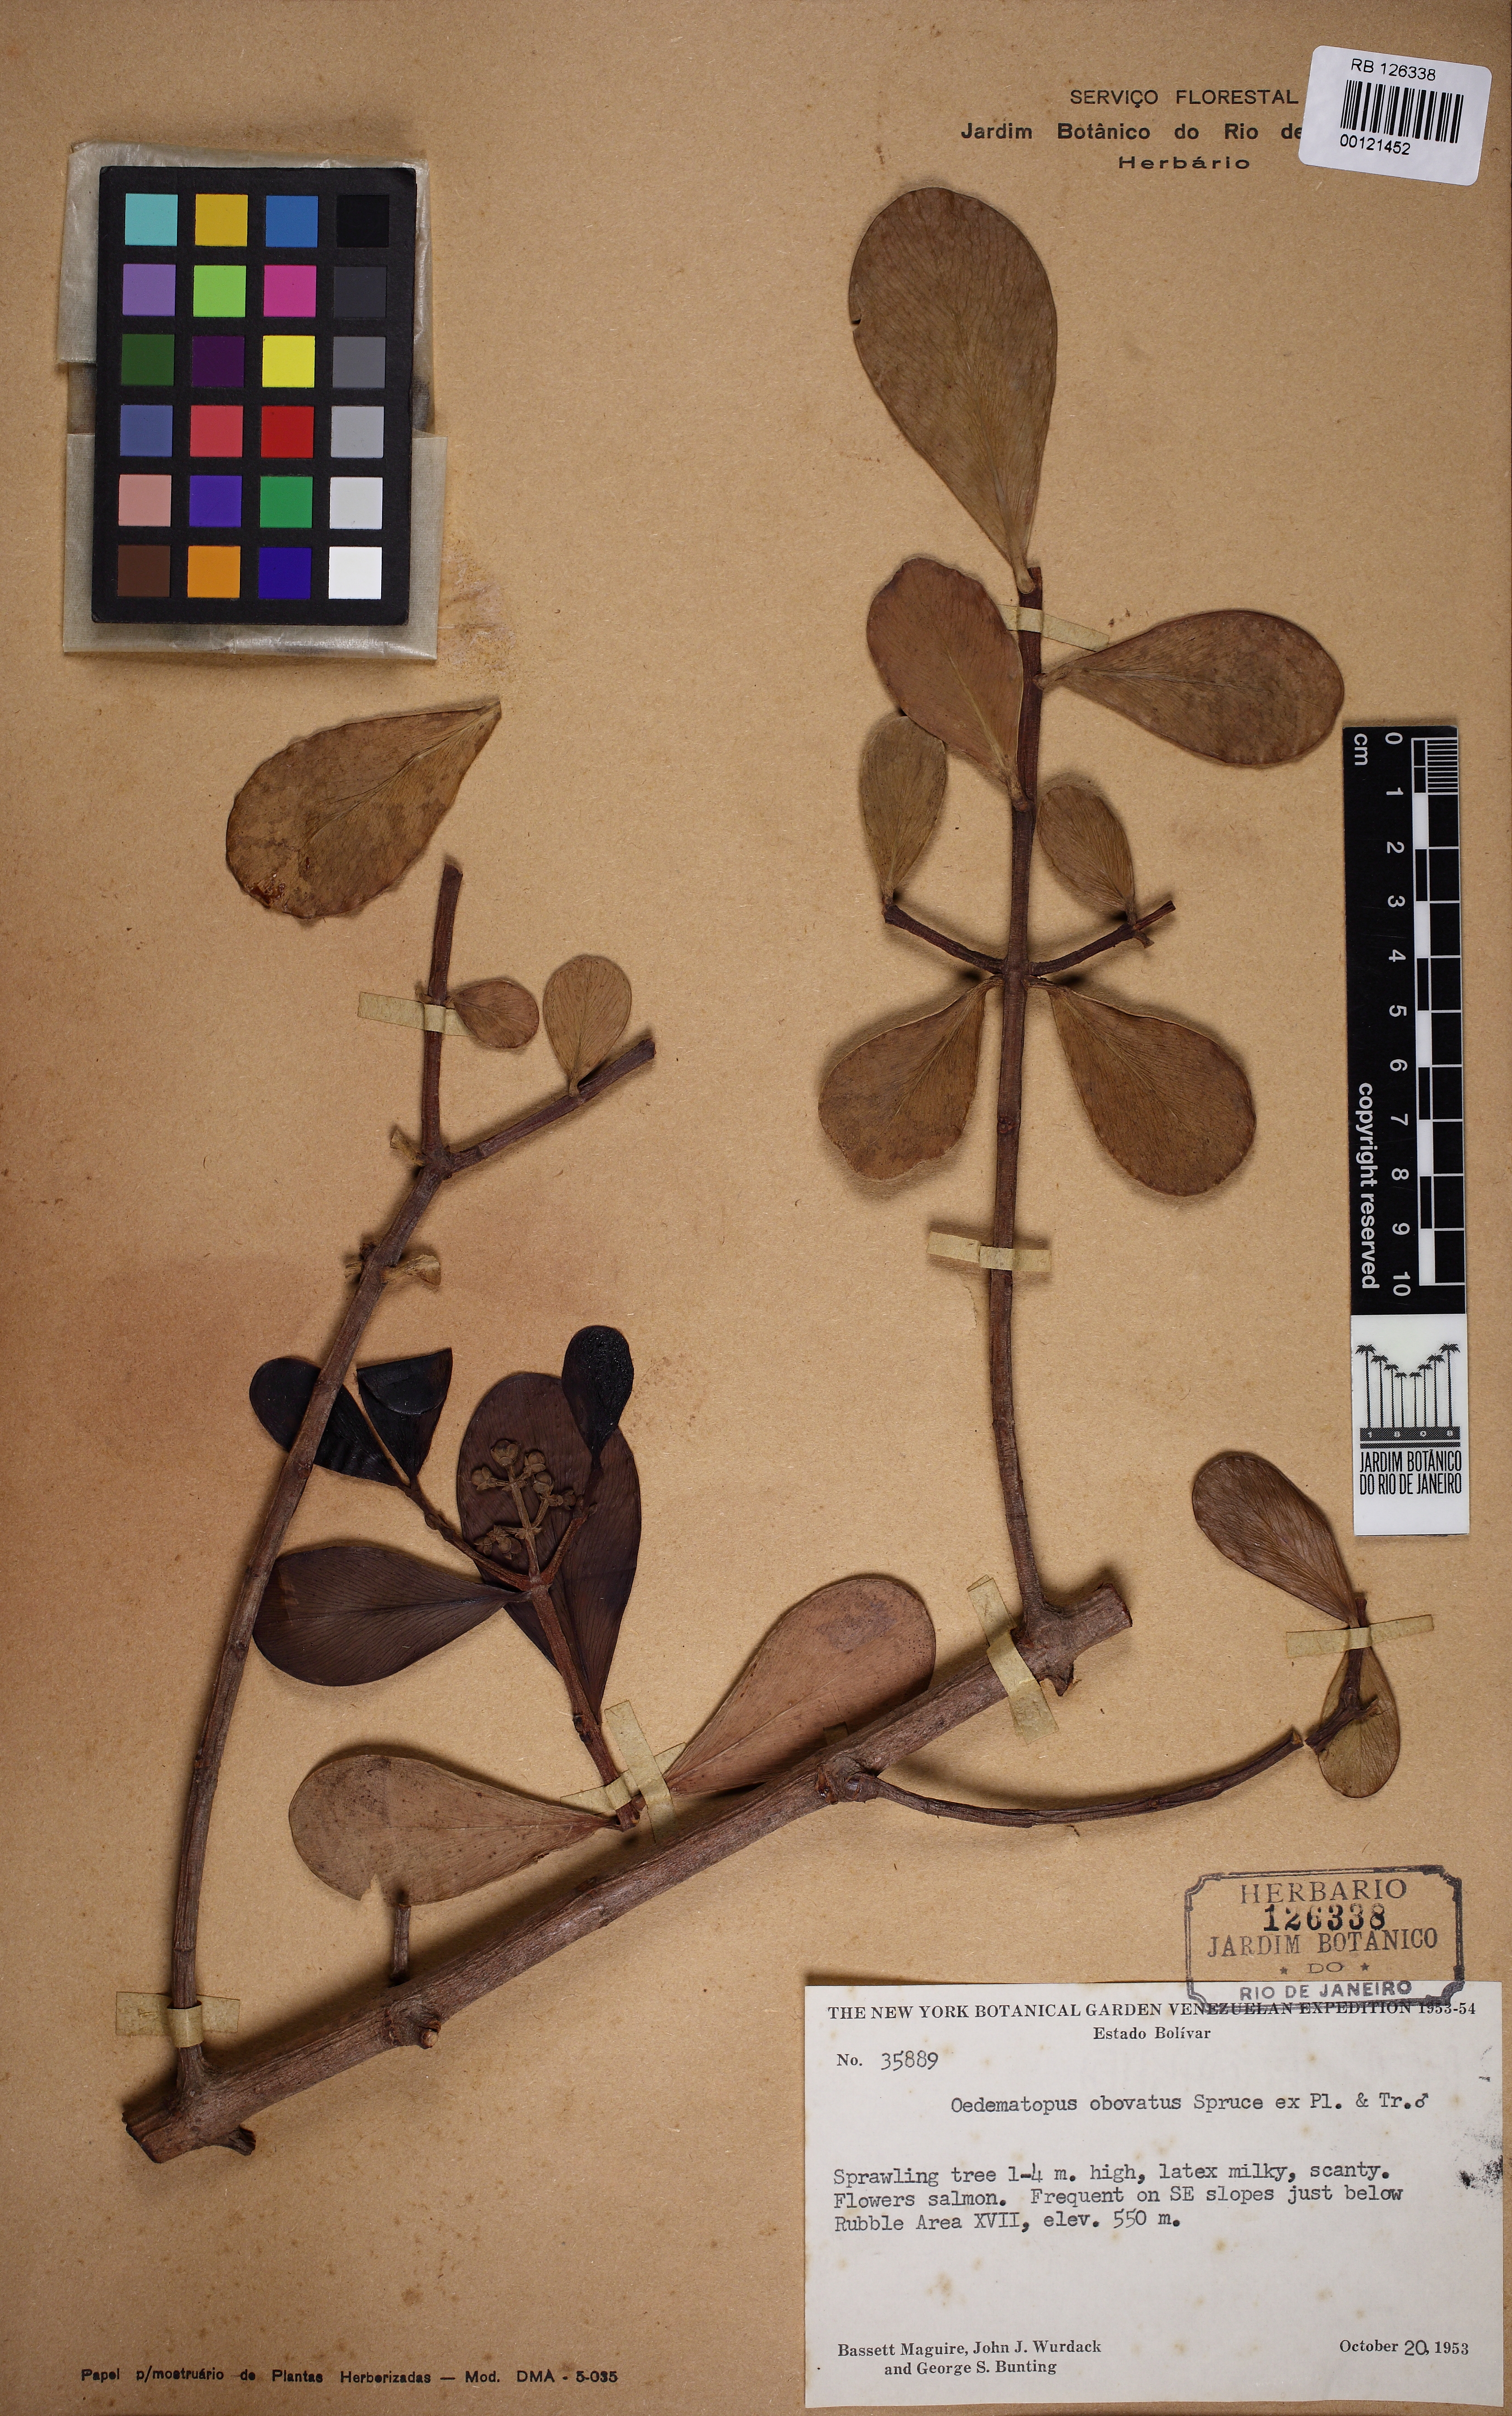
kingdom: Plantae
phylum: Tracheophyta
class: Magnoliopsida
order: Malpighiales
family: Clusiaceae
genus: Clusia
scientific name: Clusia
